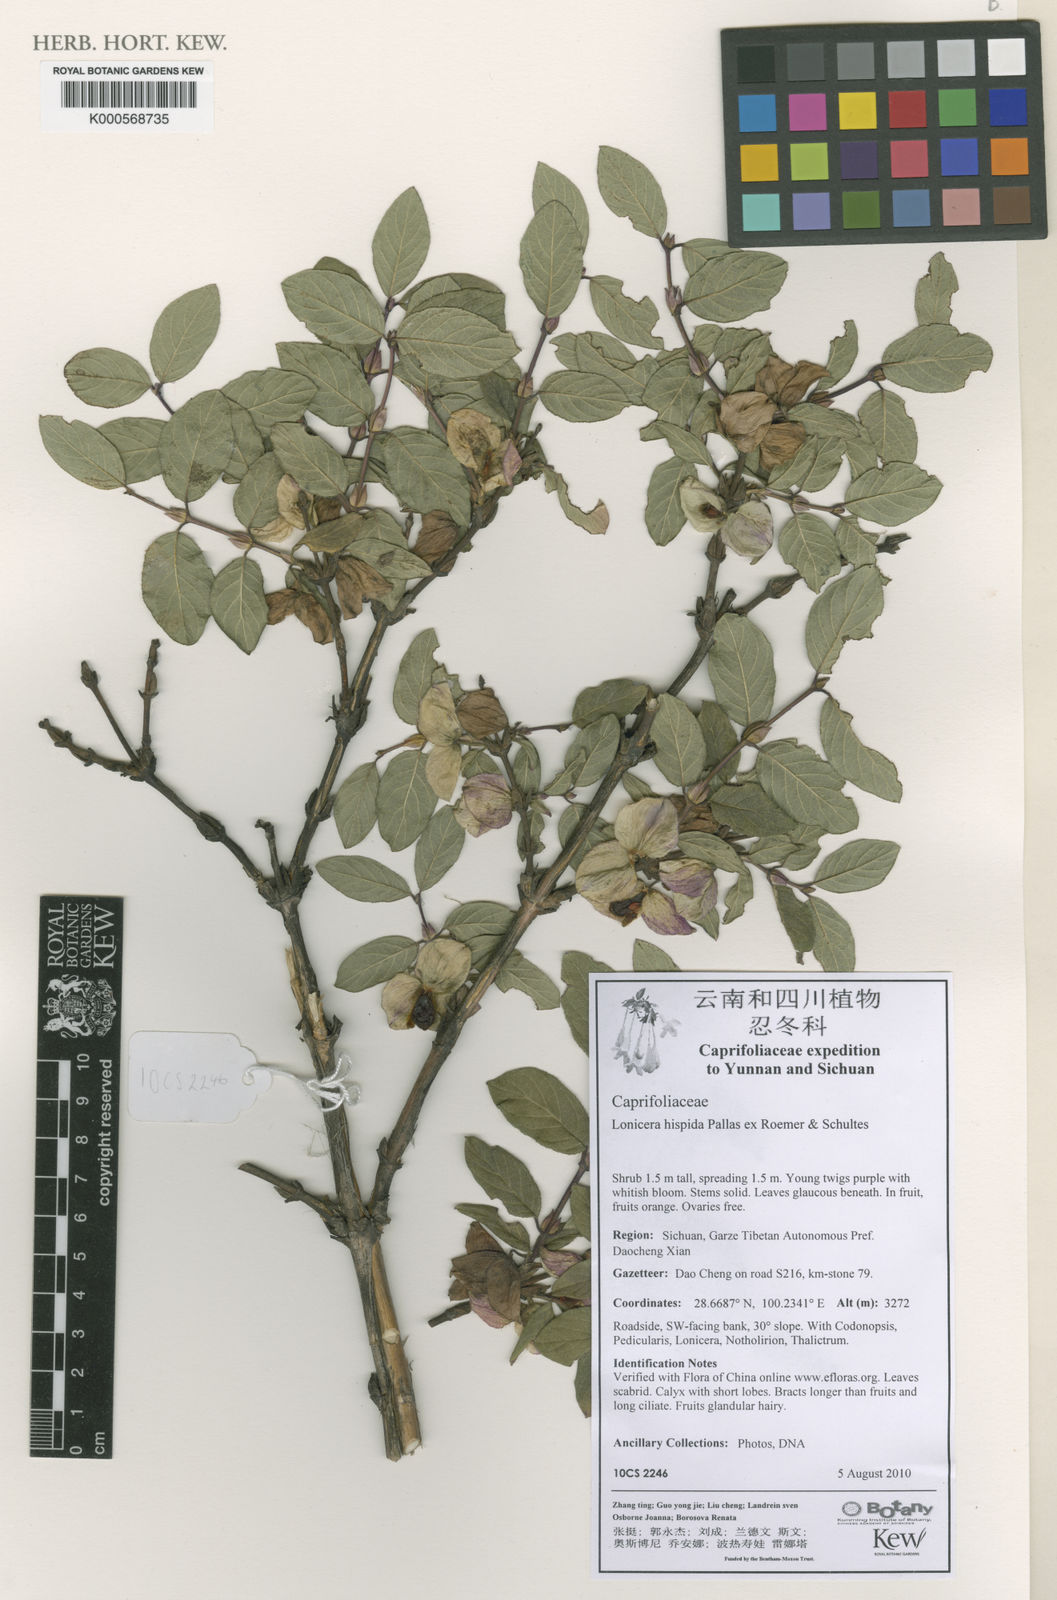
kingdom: Plantae
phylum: Tracheophyta
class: Magnoliopsida
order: Dipsacales
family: Caprifoliaceae
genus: Lonicera
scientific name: Lonicera hispida
